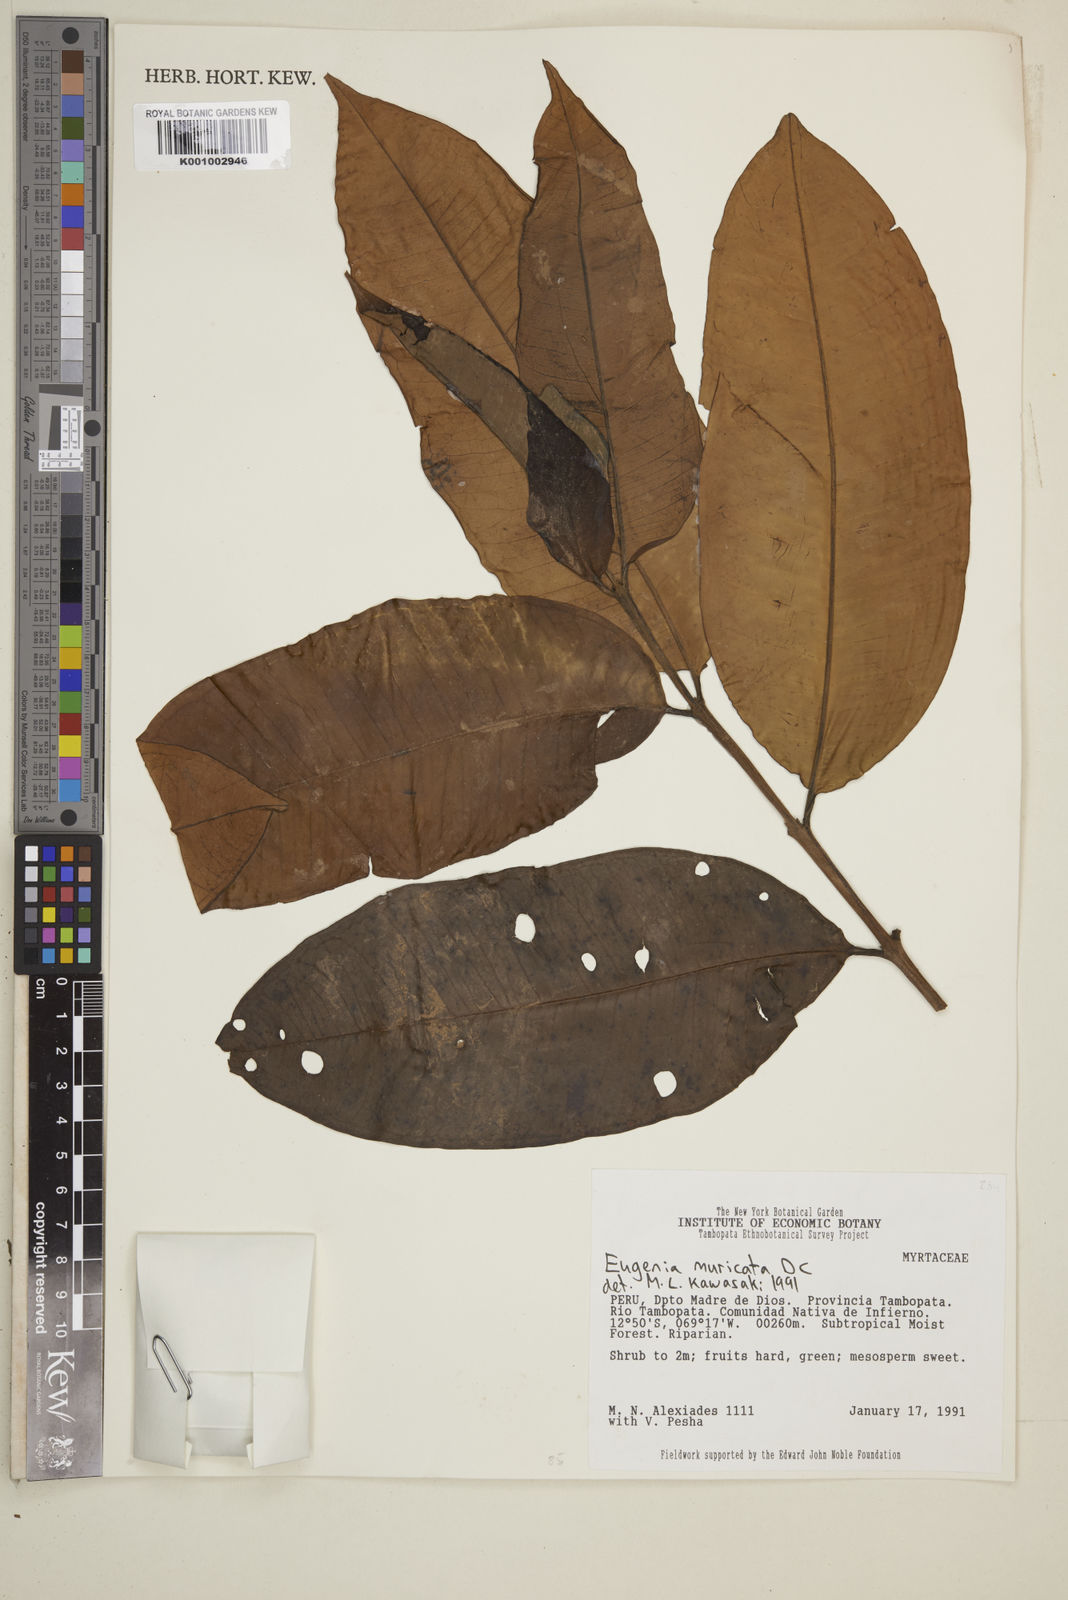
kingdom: Plantae
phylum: Tracheophyta
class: Magnoliopsida
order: Myrtales
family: Myrtaceae
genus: Eugenia
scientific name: Eugenia muricata
